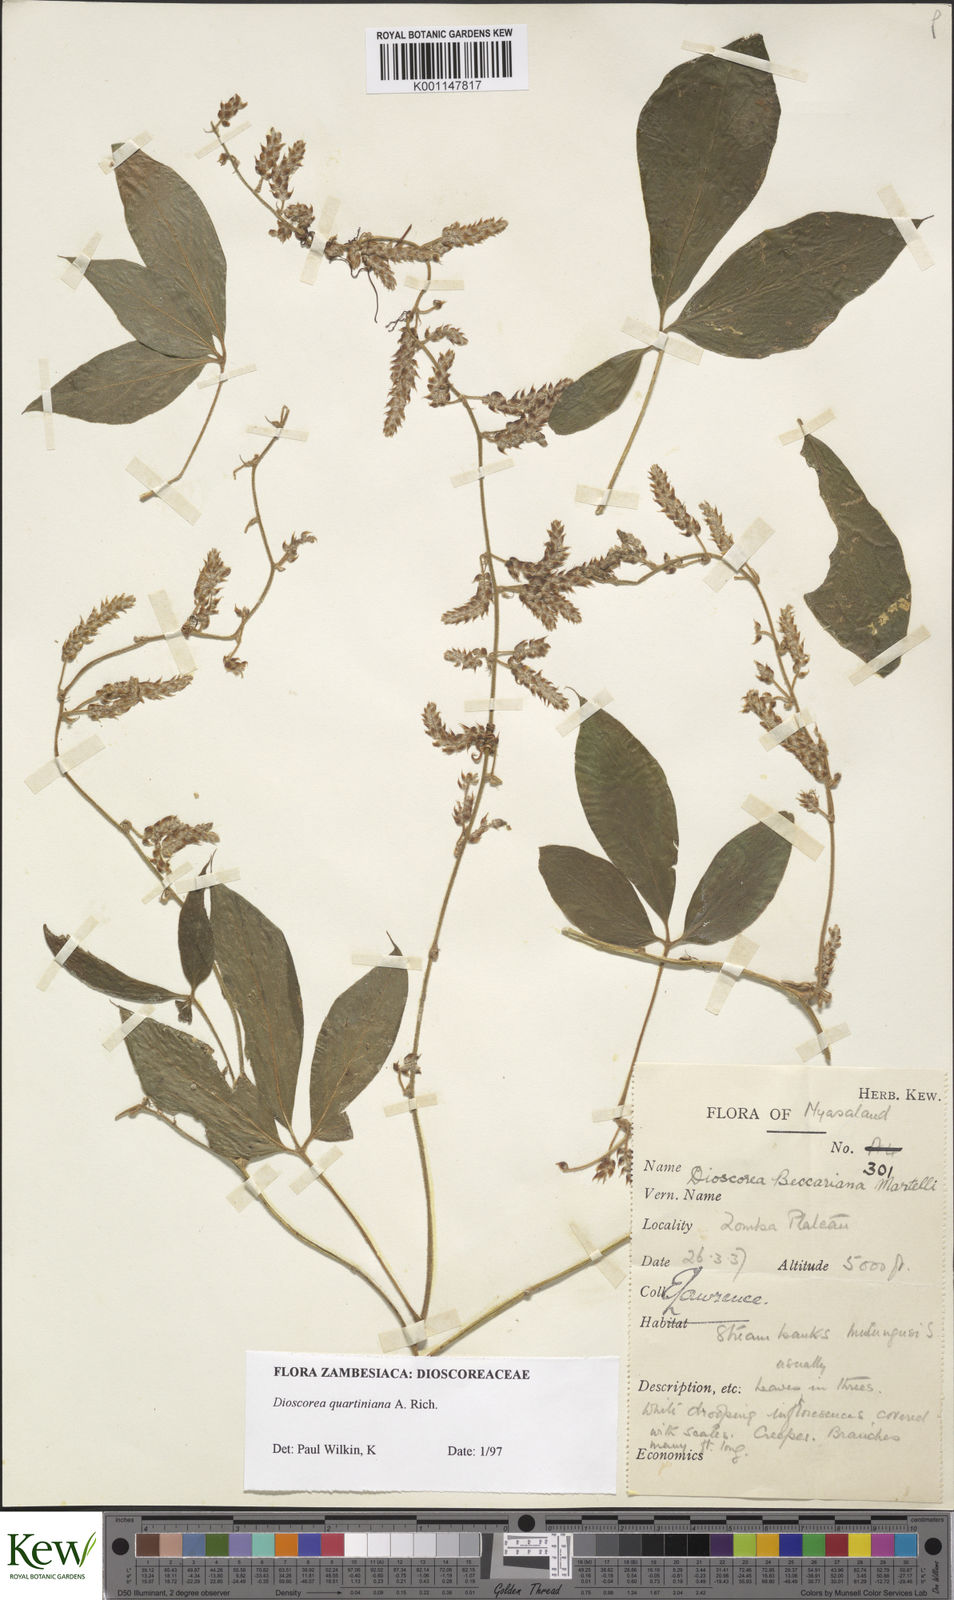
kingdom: Plantae
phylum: Tracheophyta
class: Liliopsida
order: Dioscoreales
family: Dioscoreaceae
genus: Dioscorea
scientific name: Dioscorea quartiniana
